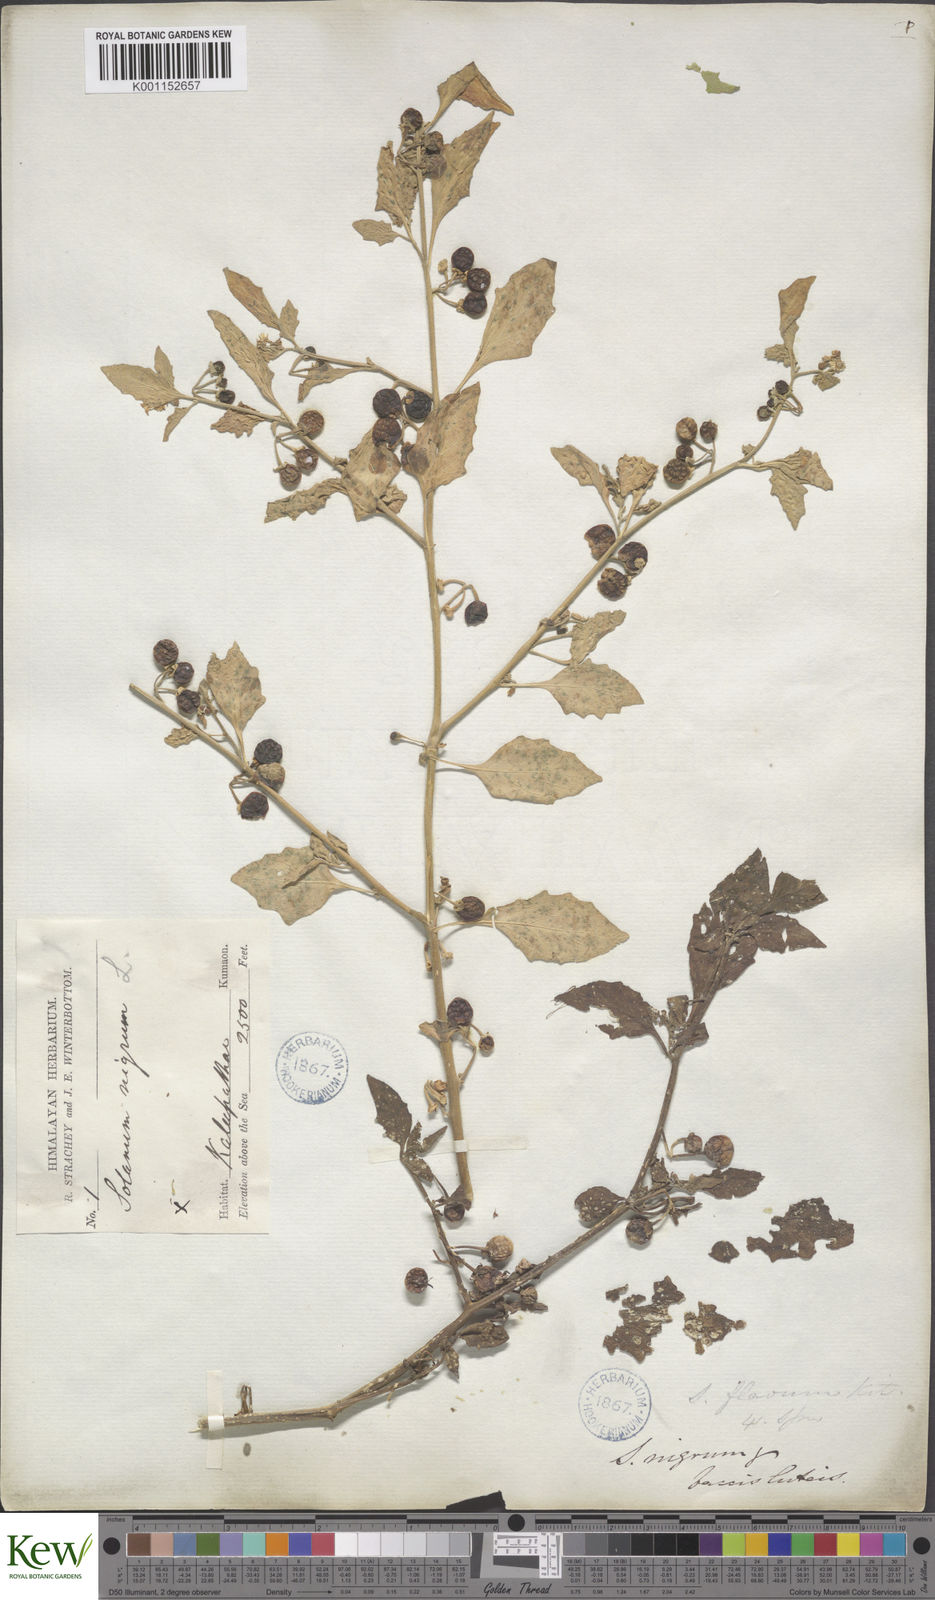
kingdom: Plantae
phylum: Tracheophyta
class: Magnoliopsida
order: Solanales
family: Solanaceae
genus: Solanum
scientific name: Solanum nigrum
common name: Black nightshade
